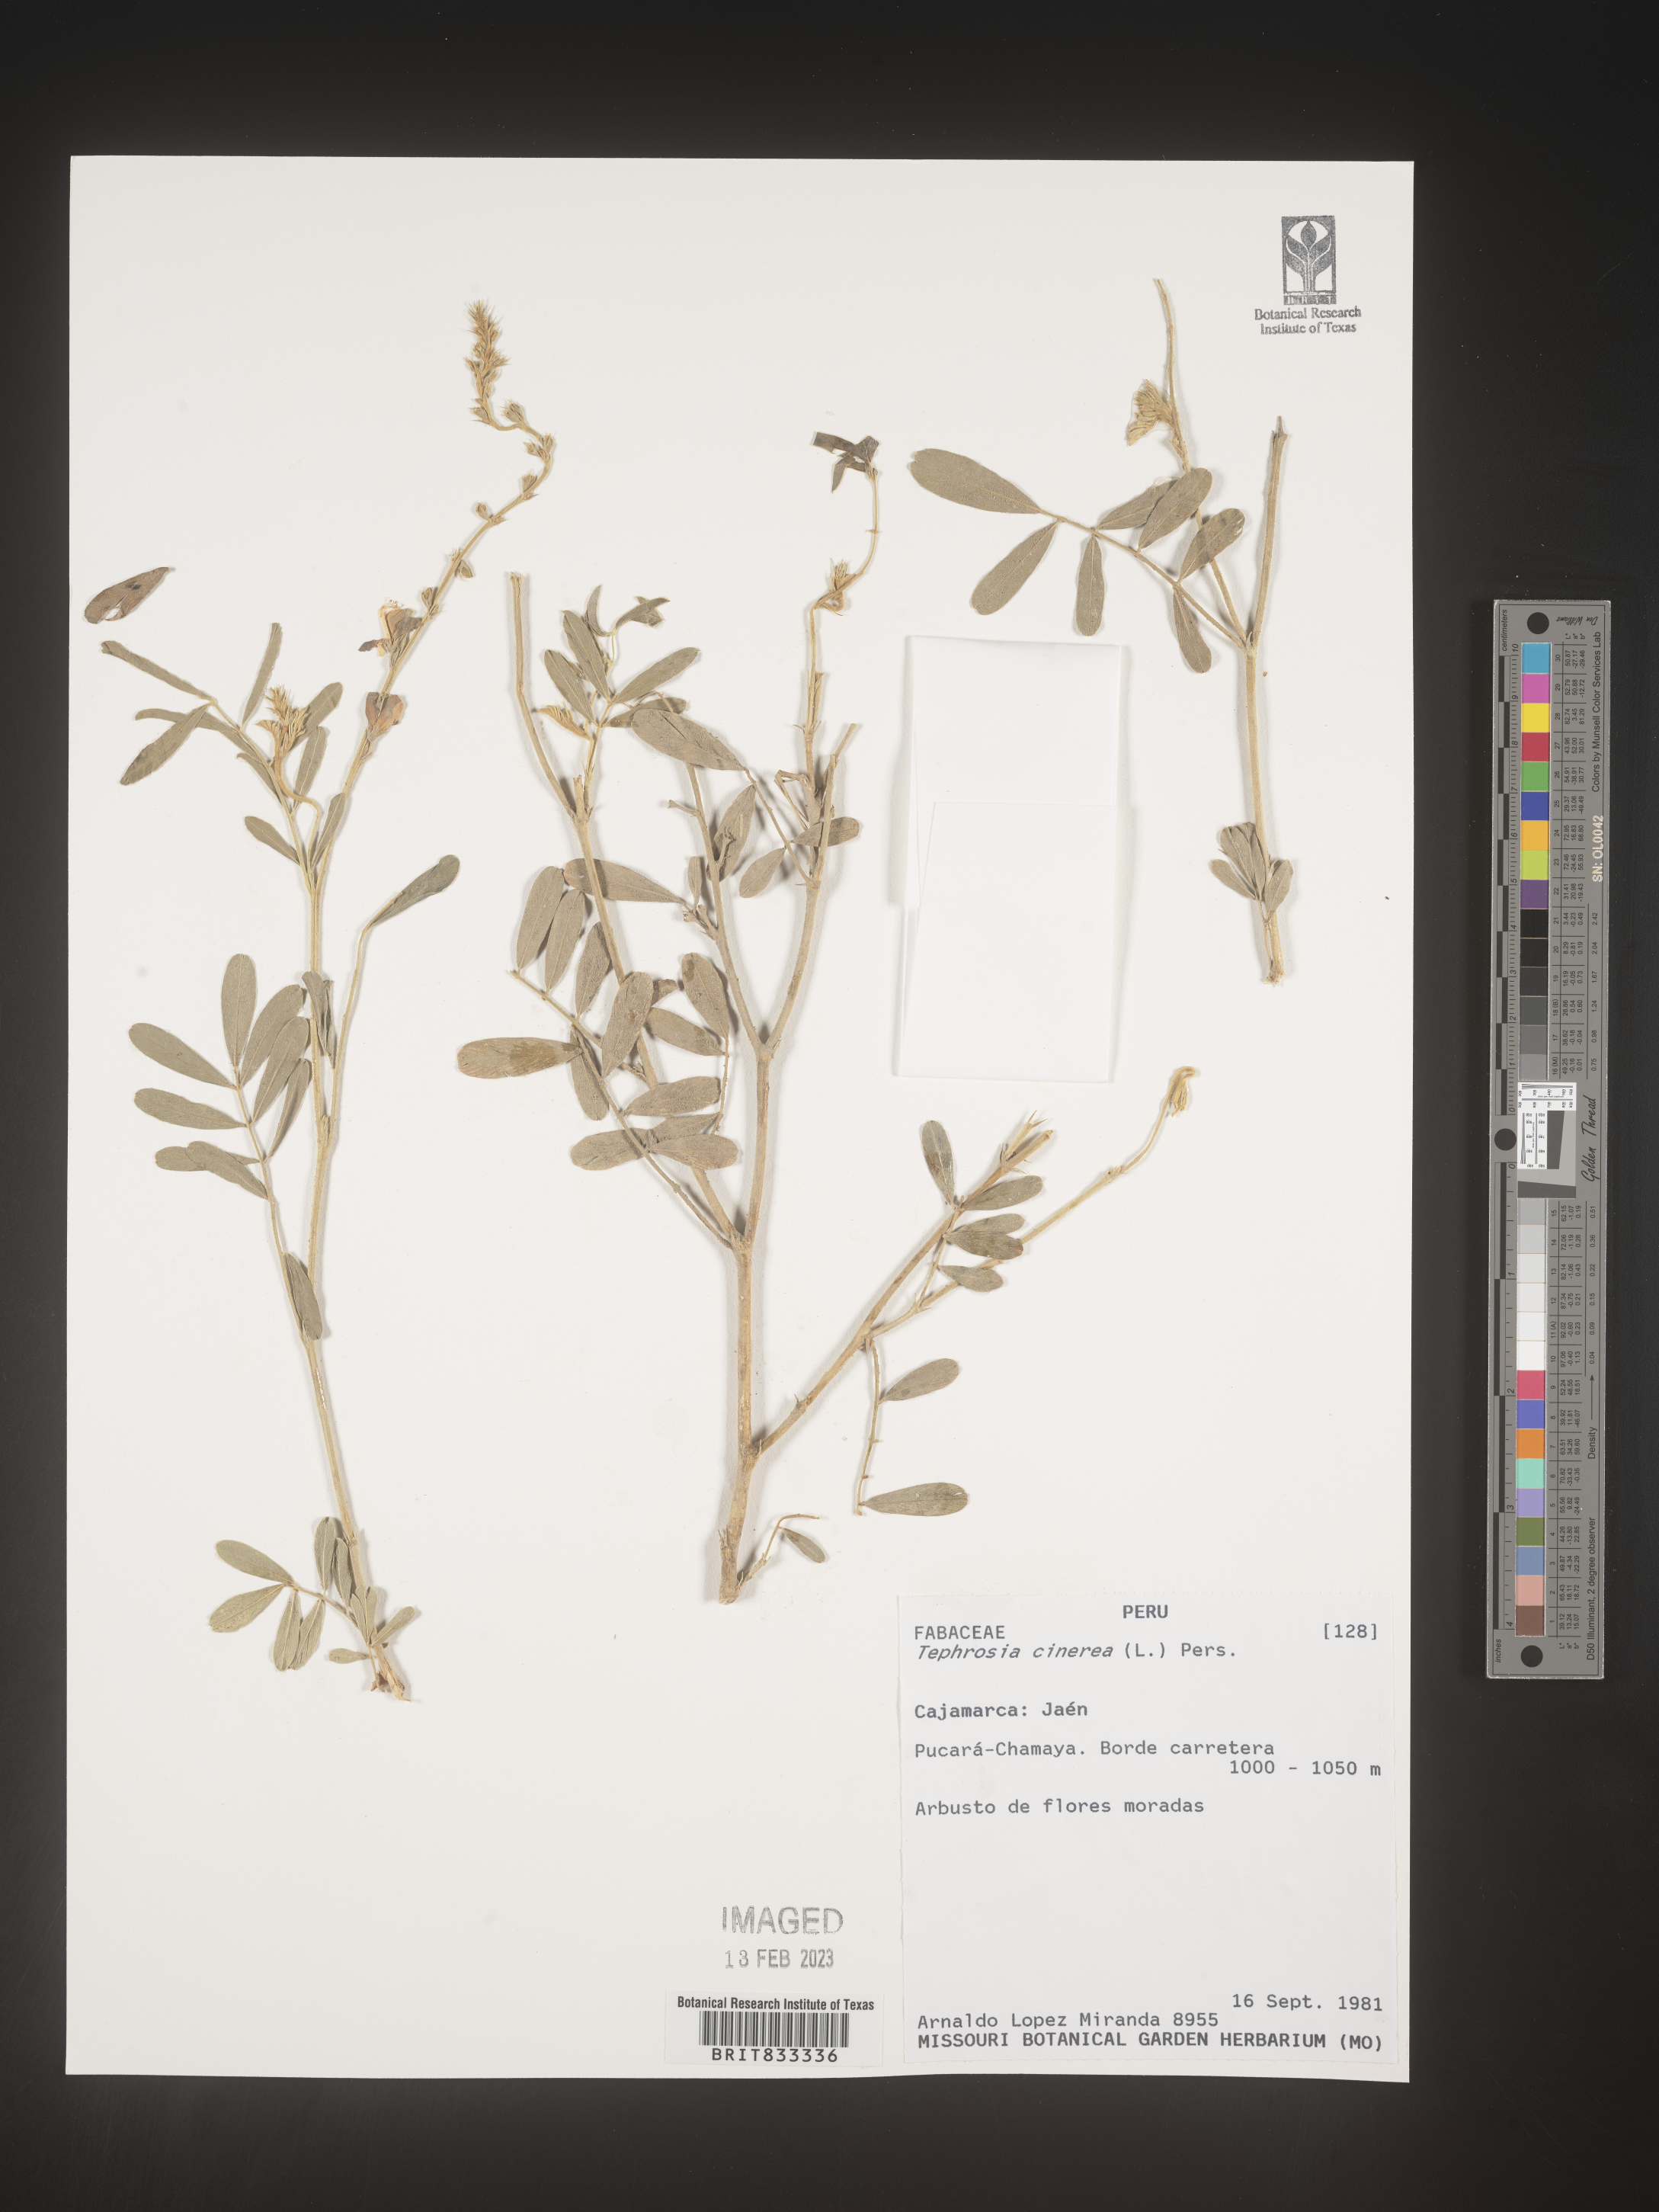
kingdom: Plantae
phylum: Tracheophyta
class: Magnoliopsida
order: Fabales
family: Fabaceae
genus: Tephrosia
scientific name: Tephrosia
